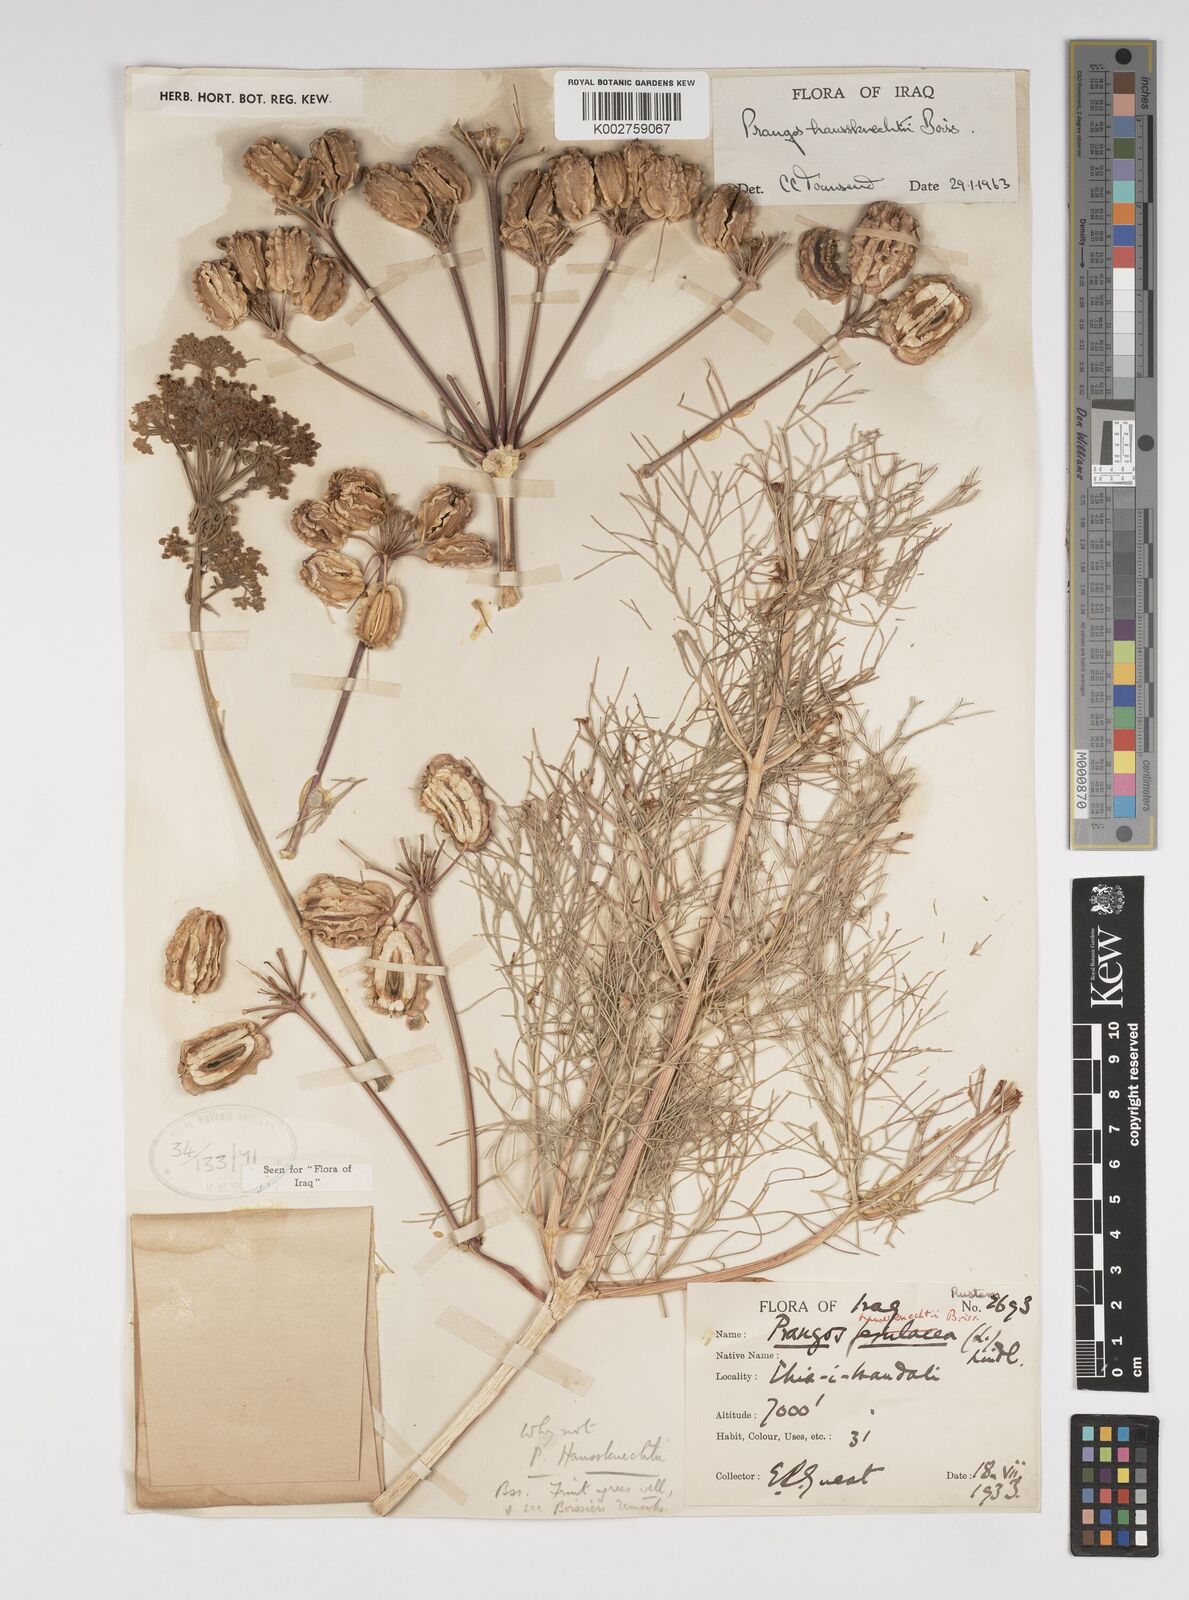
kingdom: Plantae
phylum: Tracheophyta
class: Magnoliopsida
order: Apiales
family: Apiaceae
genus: Prangos
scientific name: Prangos asperula
